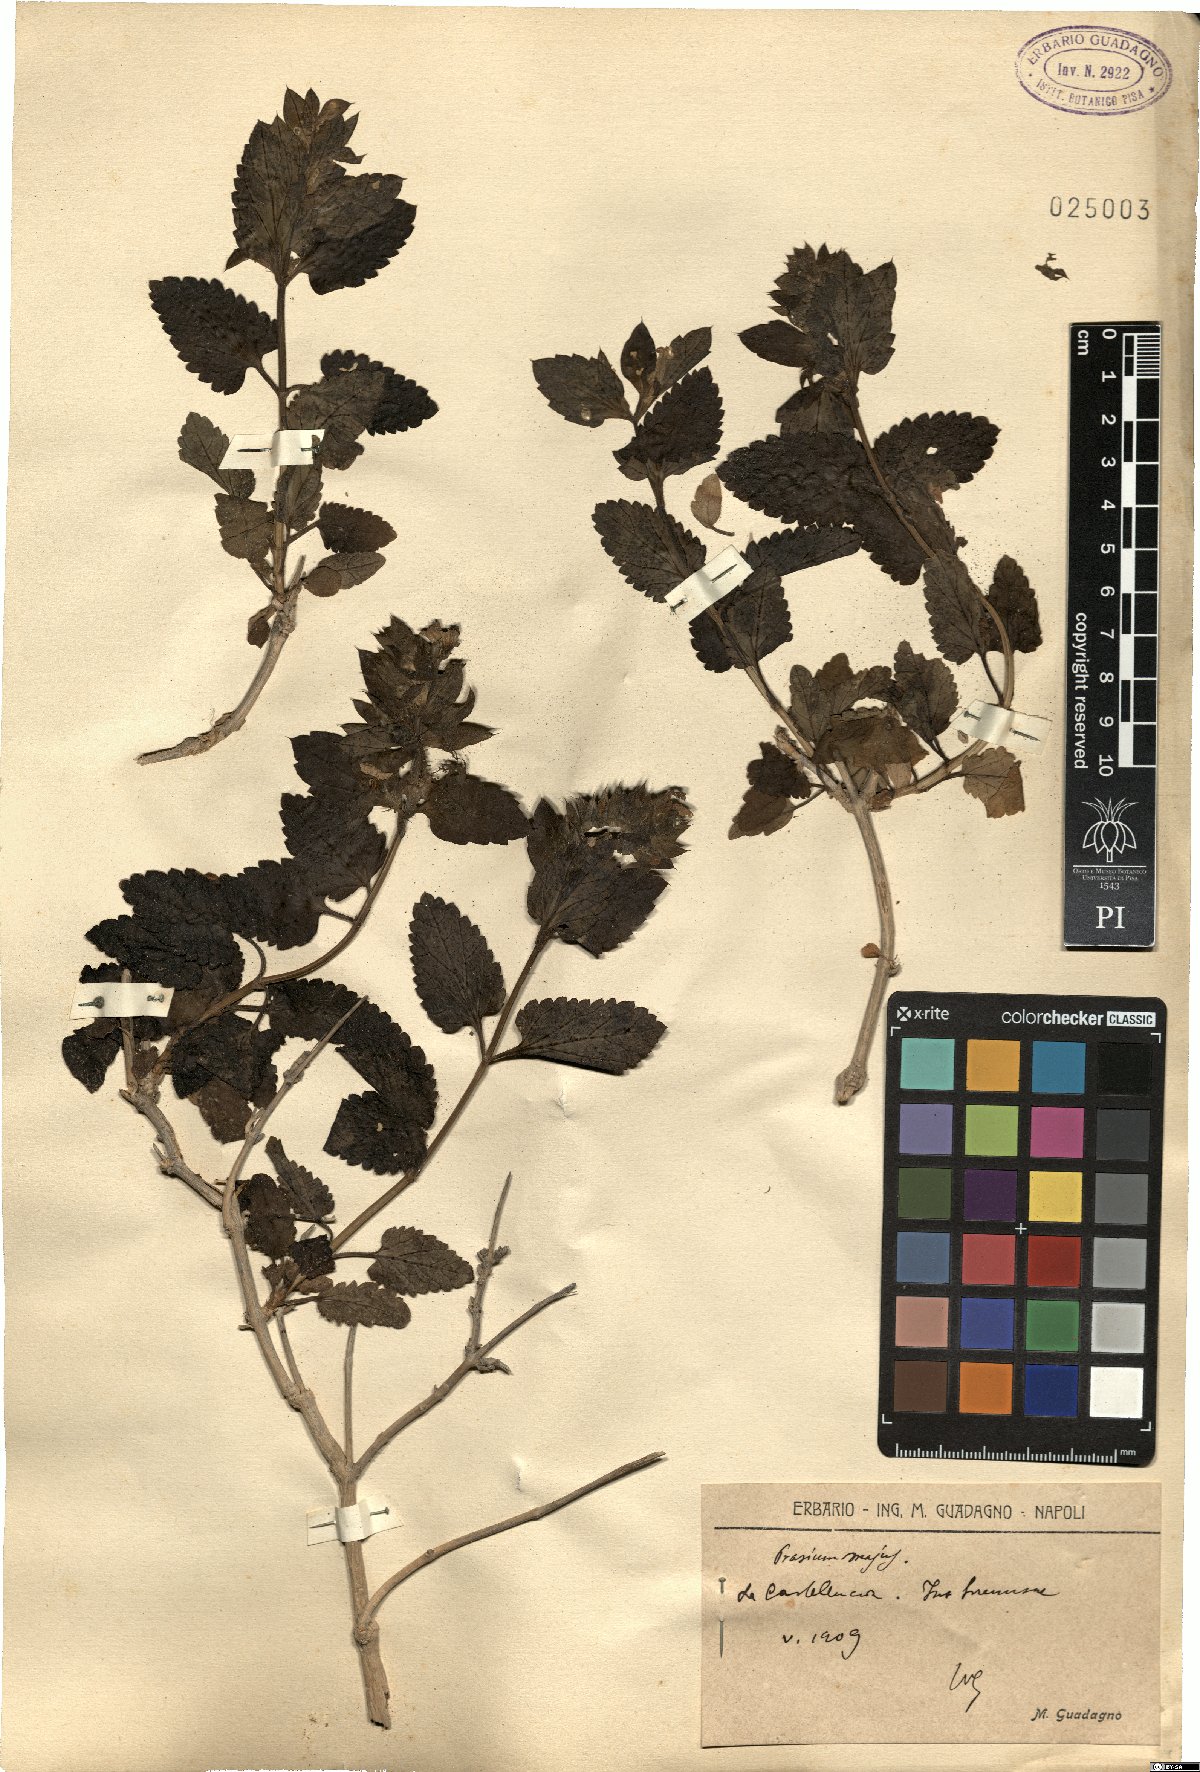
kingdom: Plantae
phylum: Tracheophyta
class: Magnoliopsida
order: Lamiales
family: Lamiaceae
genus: Prasium
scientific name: Prasium majus
